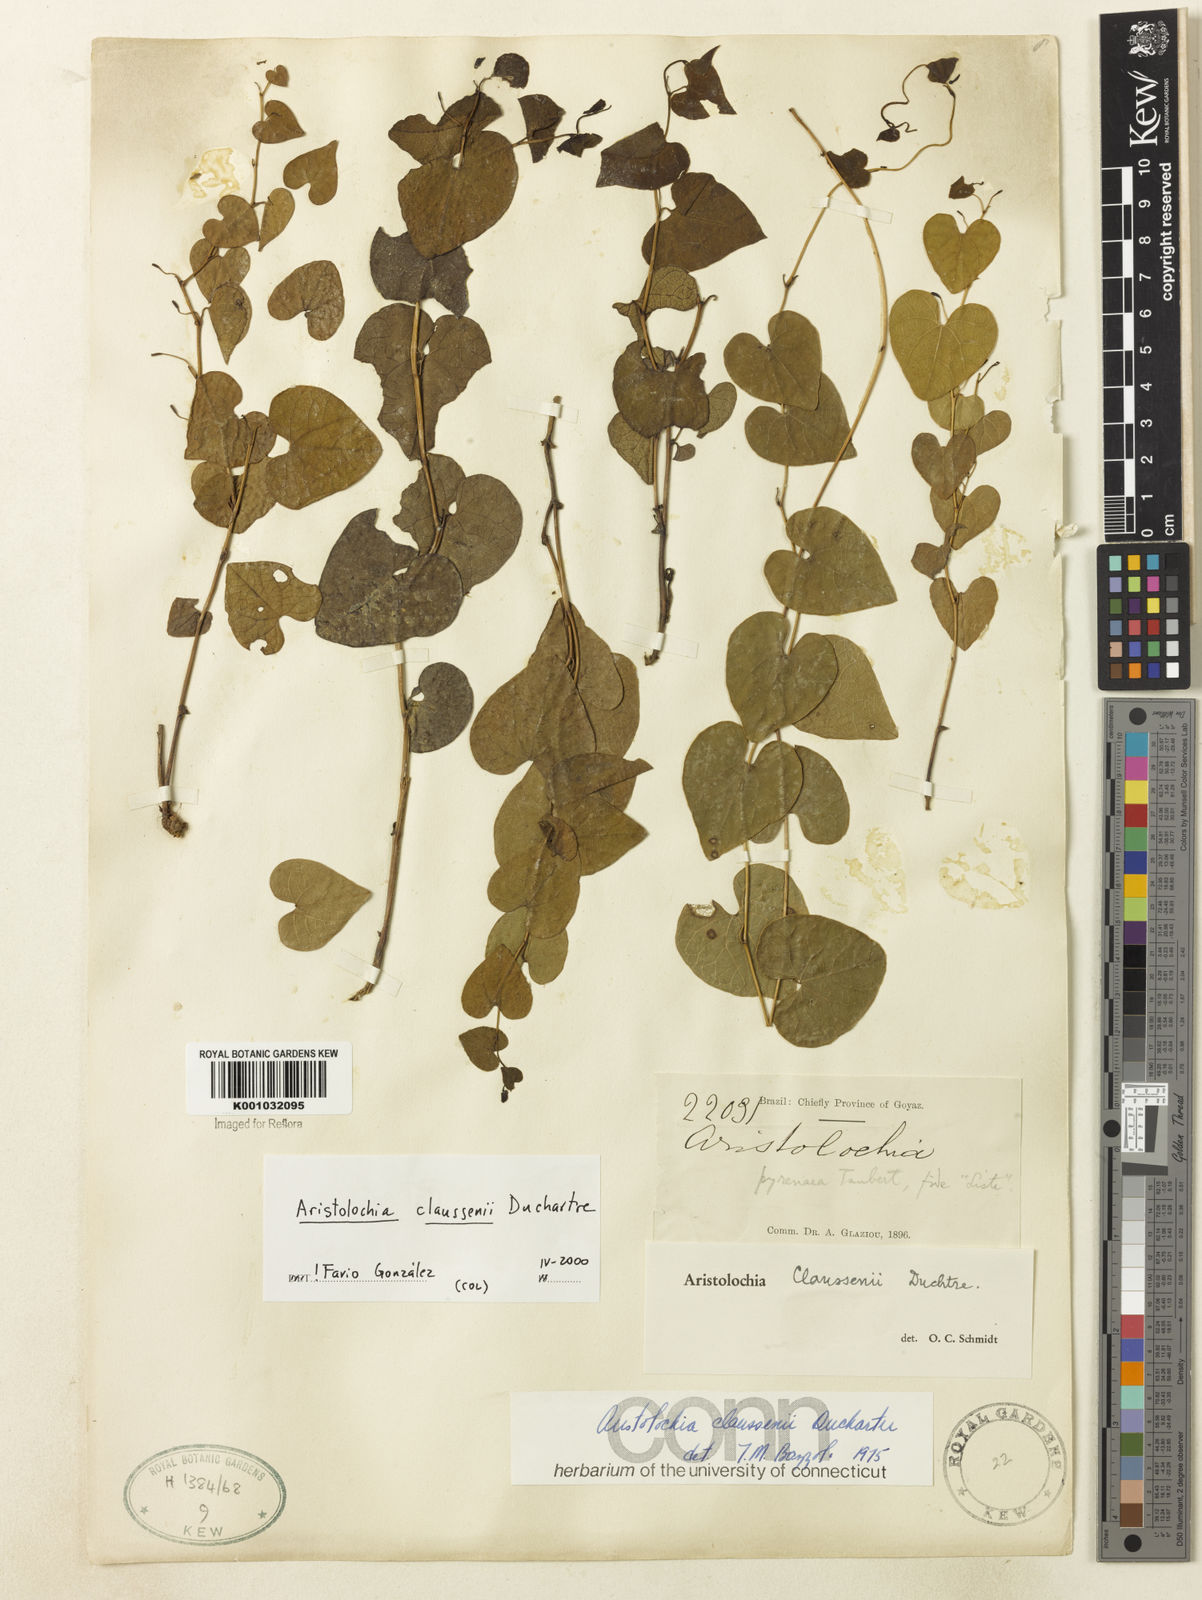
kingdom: Plantae
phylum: Tracheophyta
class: Magnoliopsida
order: Piperales
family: Aristolochiaceae
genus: Aristolochia
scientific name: Aristolochia nummularifolia
